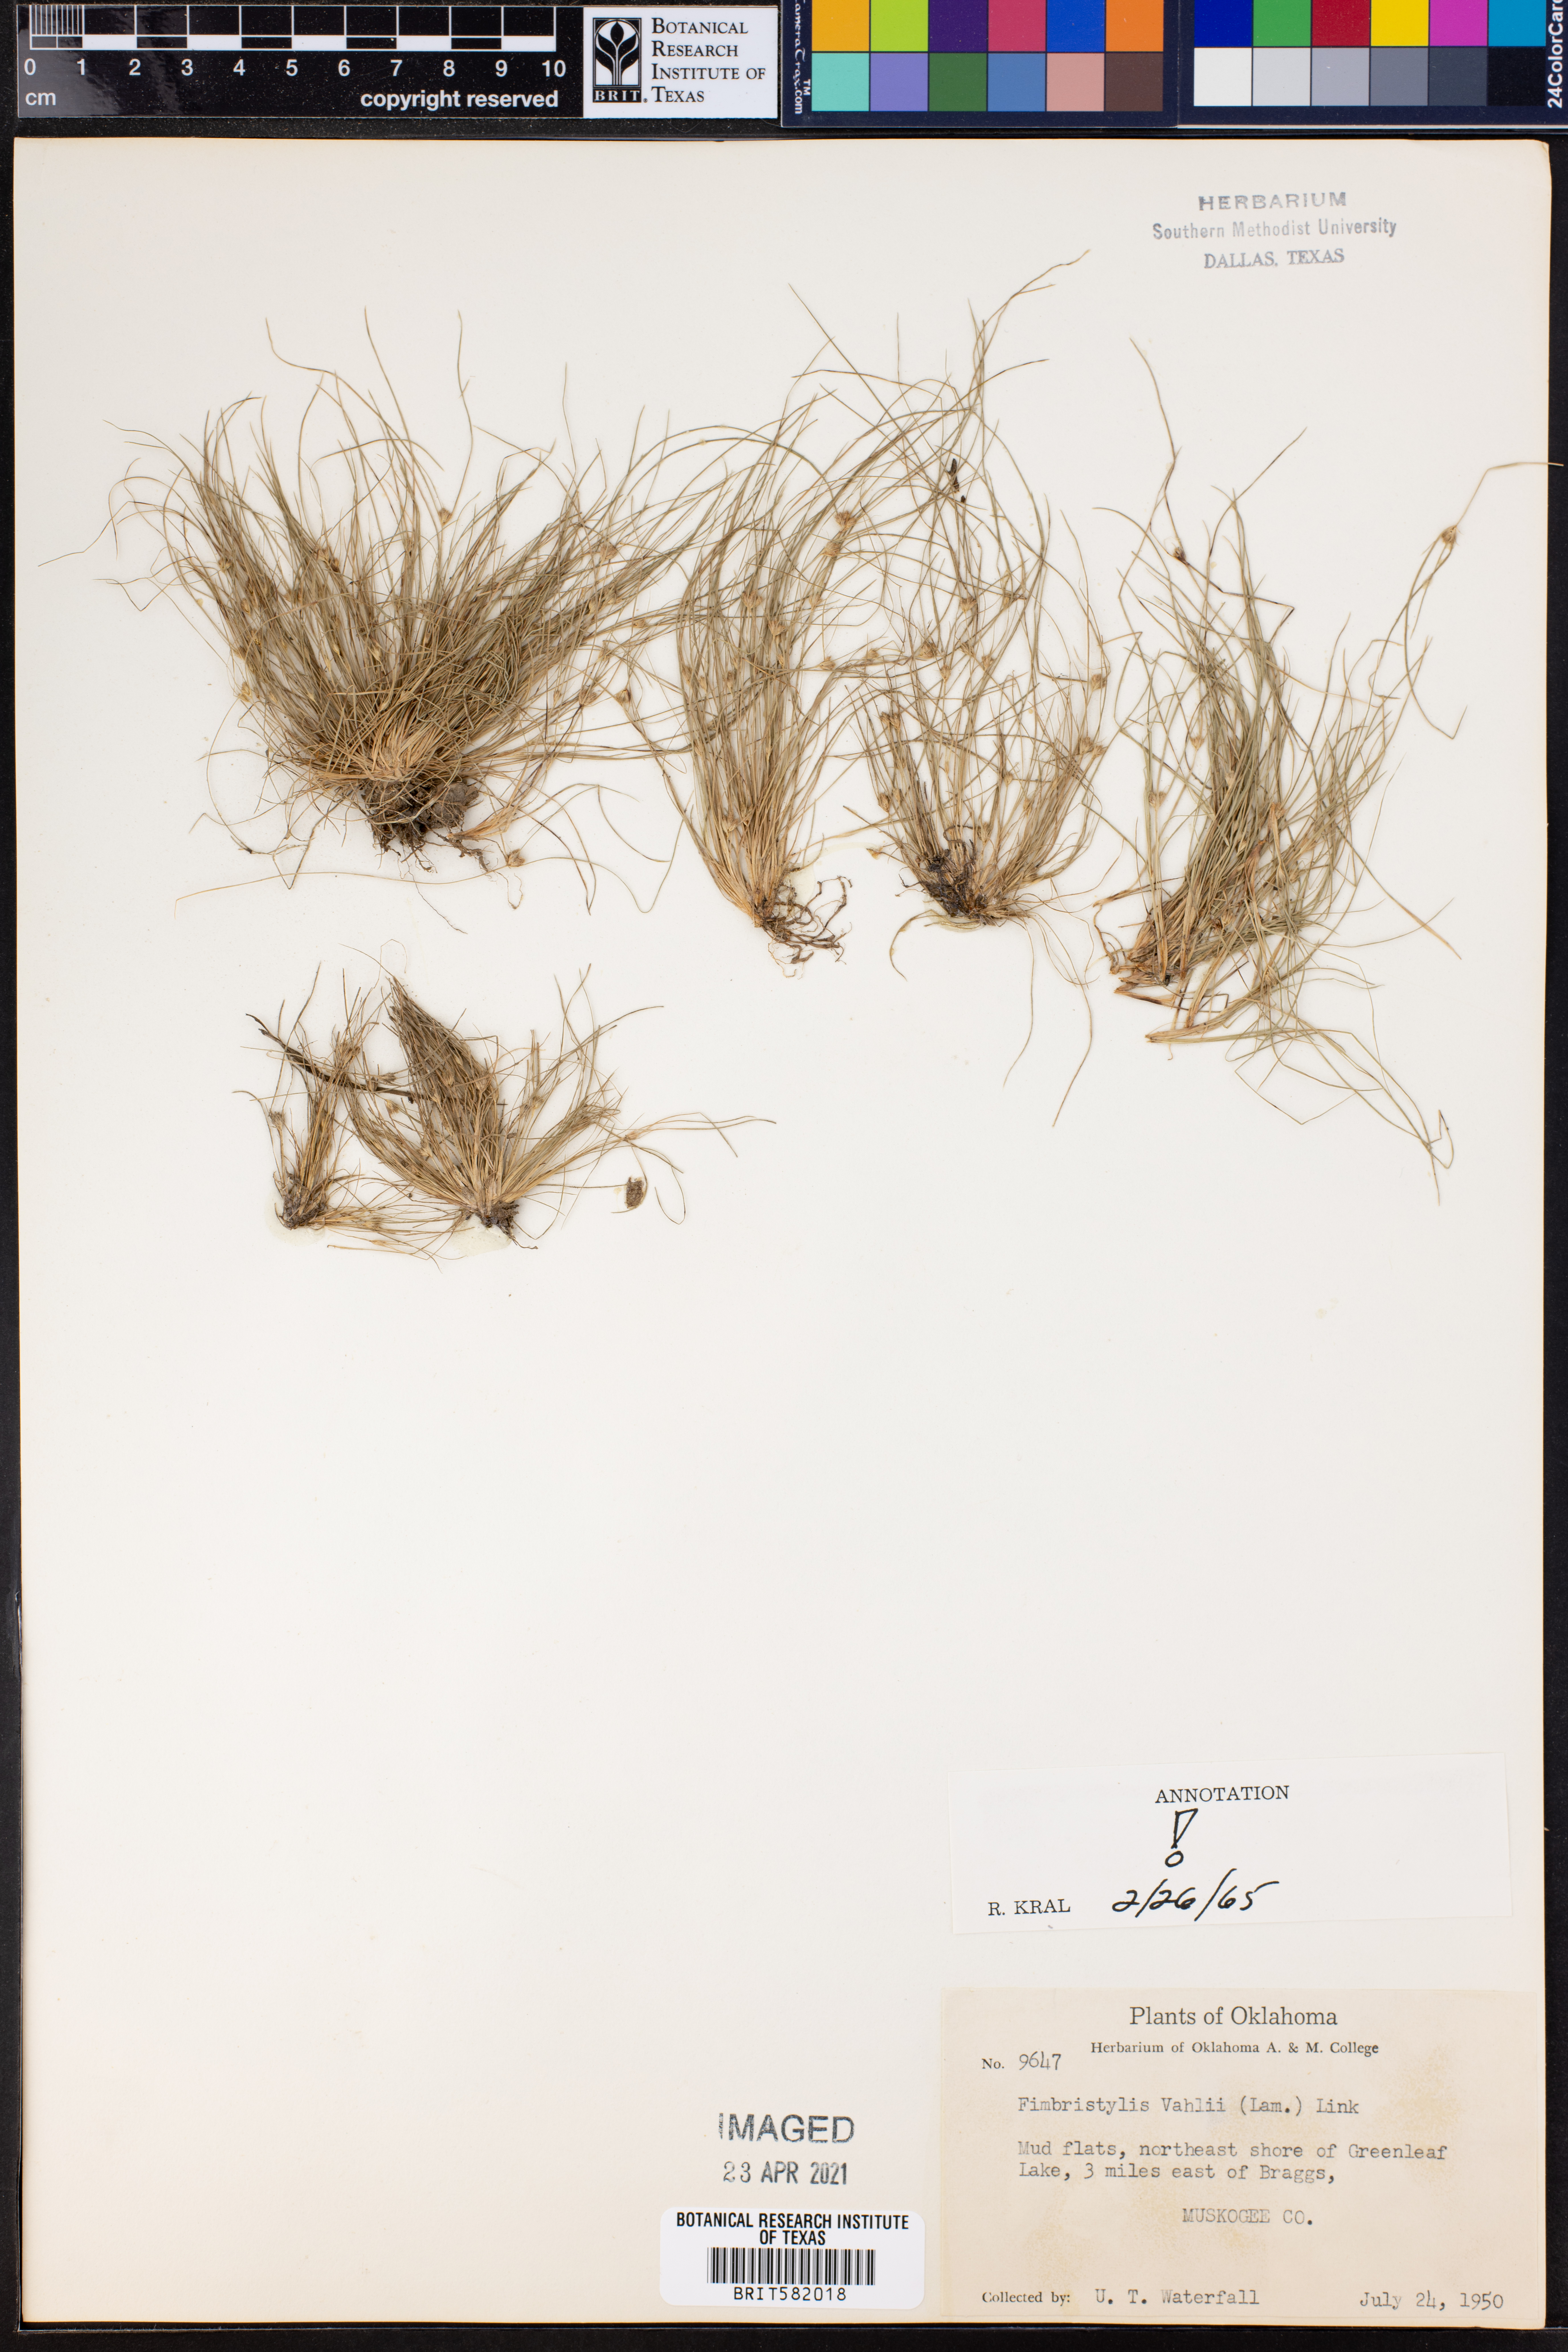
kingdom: Plantae
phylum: Tracheophyta
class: Liliopsida
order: Poales
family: Cyperaceae
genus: Fimbristylis
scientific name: Fimbristylis vahlii
